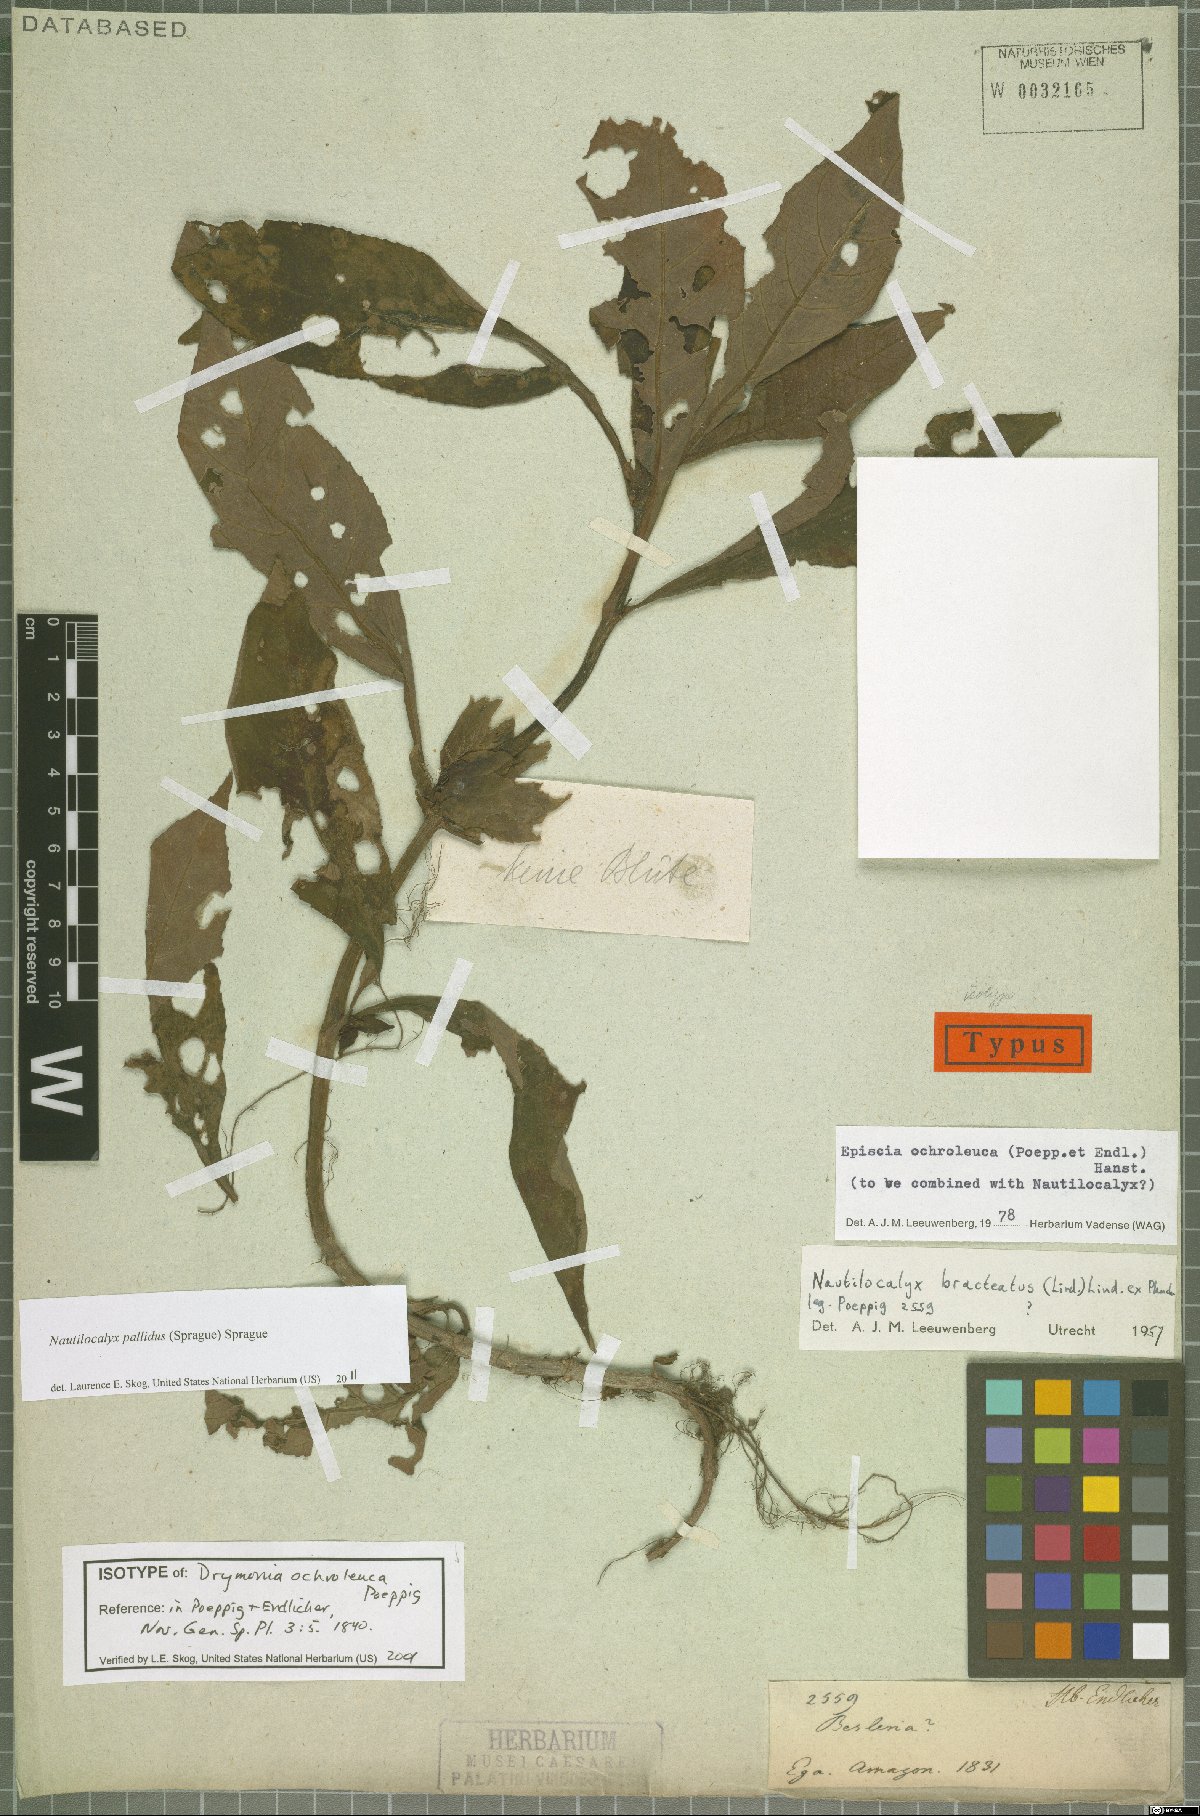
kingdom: Plantae
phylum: Tracheophyta
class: Magnoliopsida
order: Lamiales
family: Gesneriaceae
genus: Nautilocalyx
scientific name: Nautilocalyx pallidus
